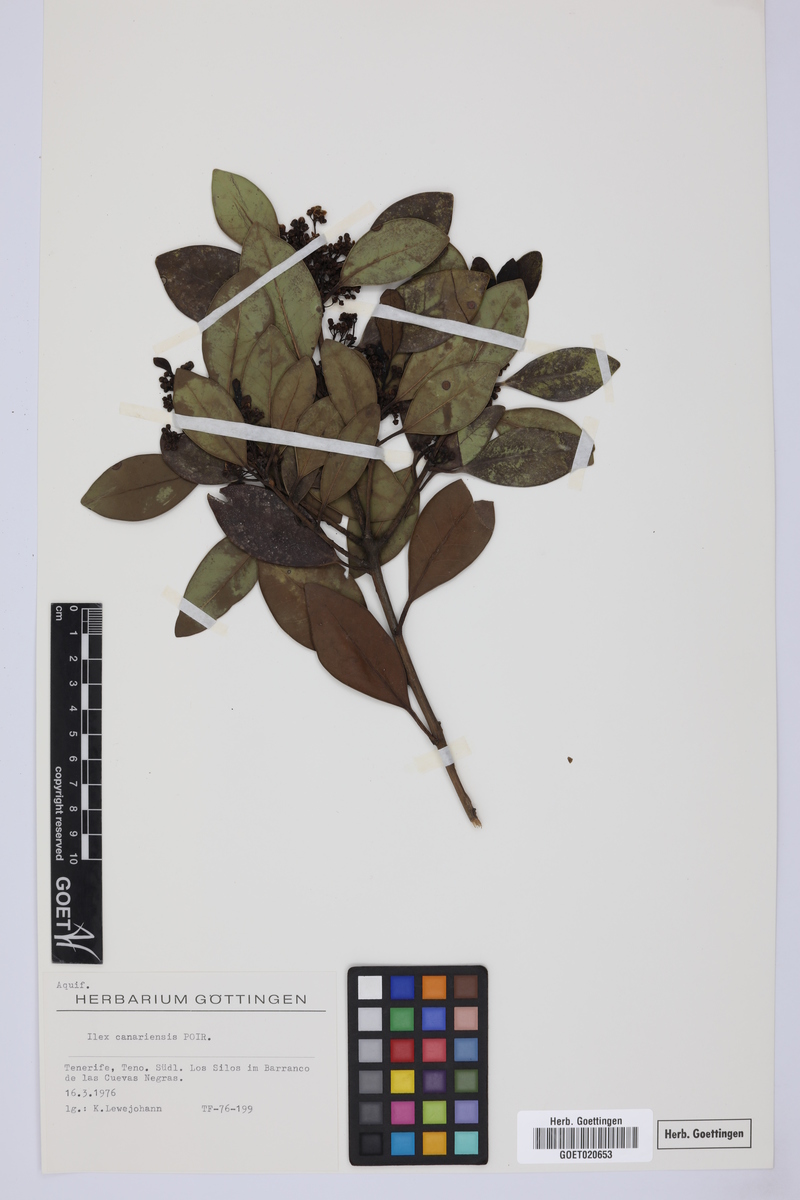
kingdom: Plantae
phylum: Tracheophyta
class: Magnoliopsida
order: Aquifoliales
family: Aquifoliaceae
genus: Ilex
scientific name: Ilex canariensis
